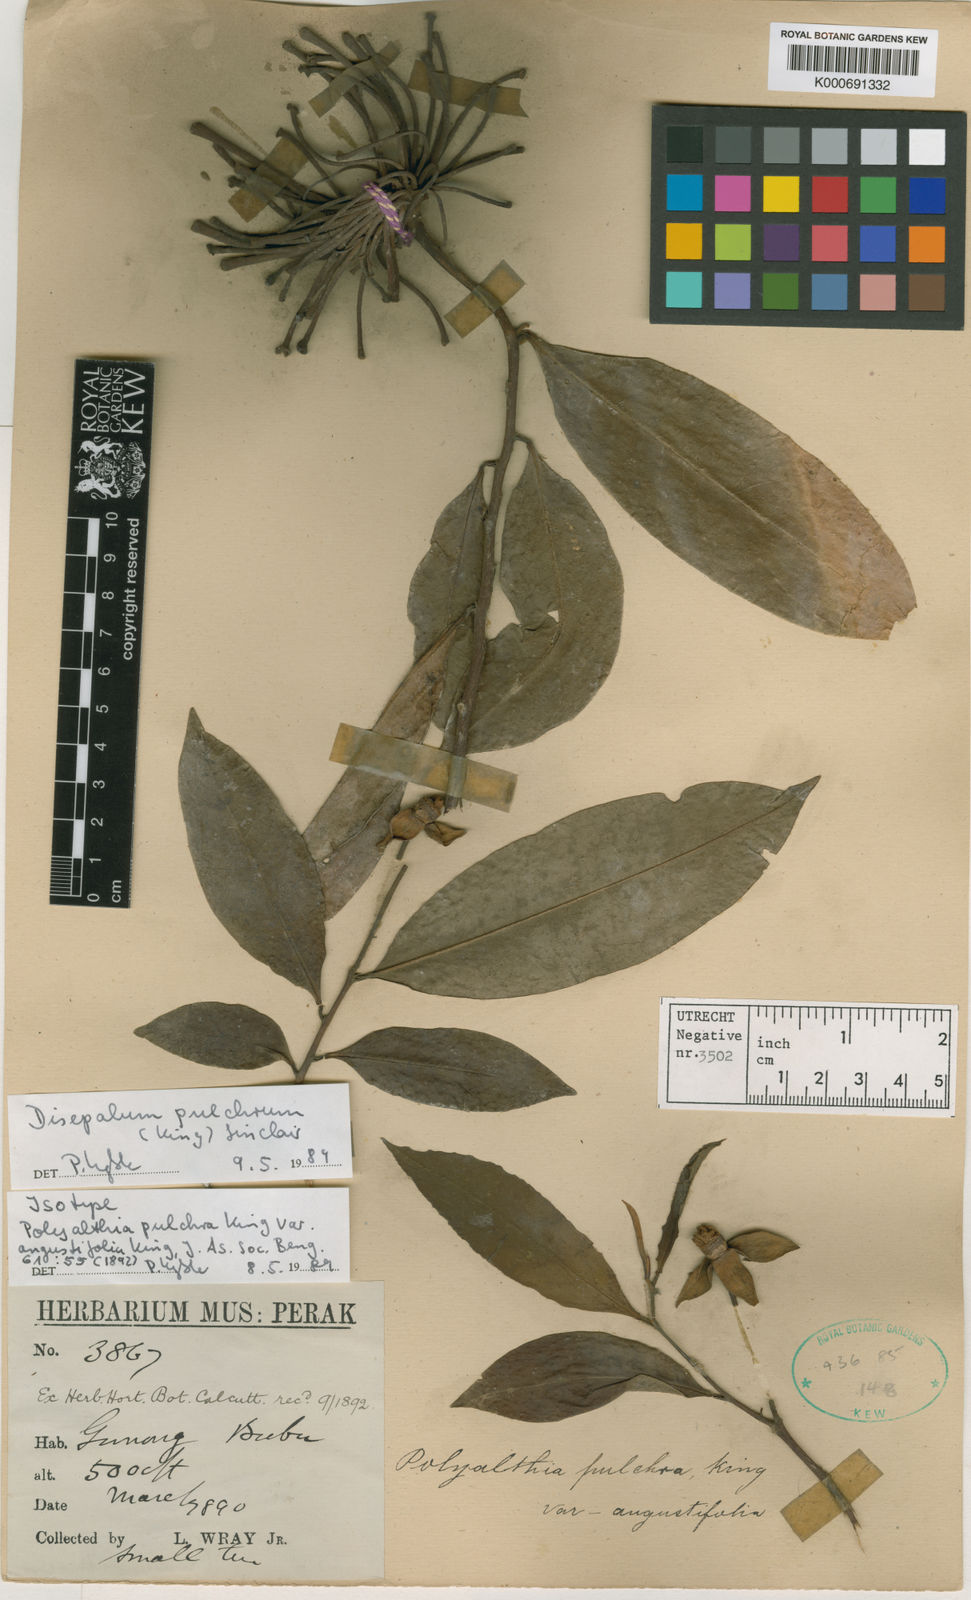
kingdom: Plantae
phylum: Tracheophyta
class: Magnoliopsida
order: Magnoliales
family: Annonaceae
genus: Disepalum
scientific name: Disepalum pulchrum
